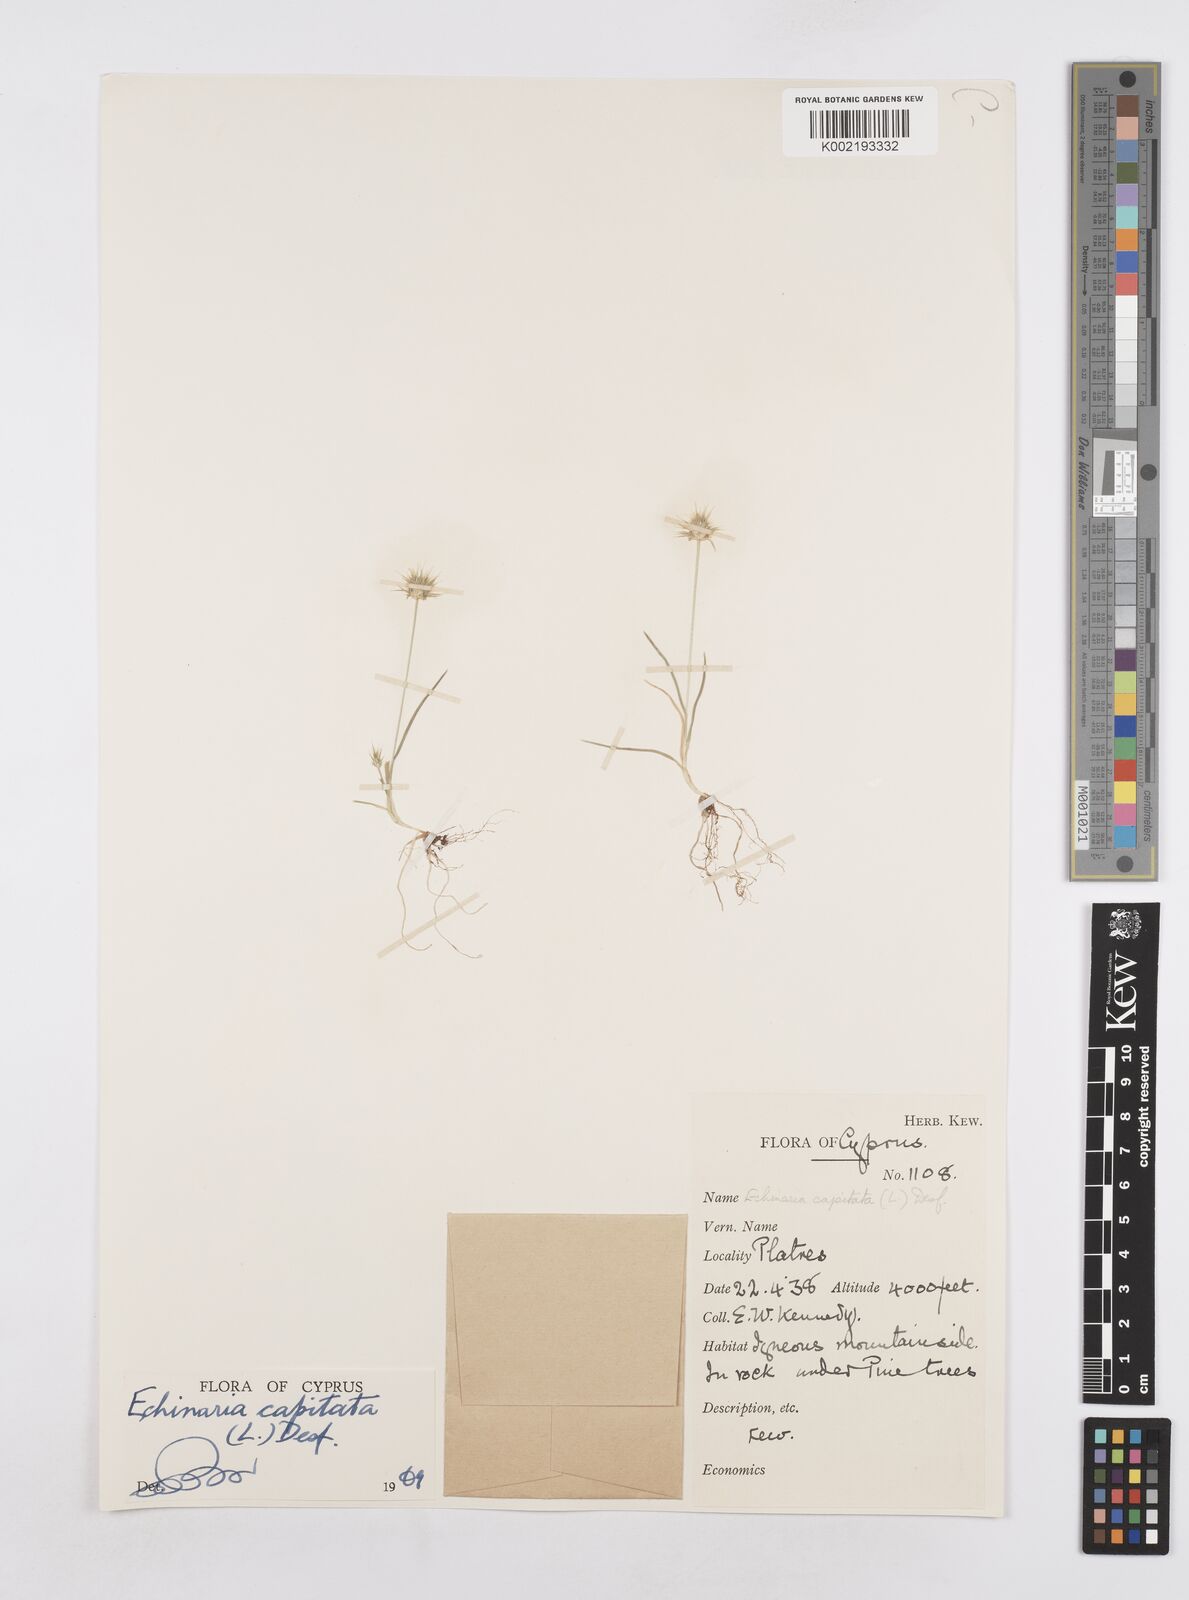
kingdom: Plantae
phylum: Tracheophyta
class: Liliopsida
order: Poales
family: Poaceae
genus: Echinaria
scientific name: Echinaria capitata
